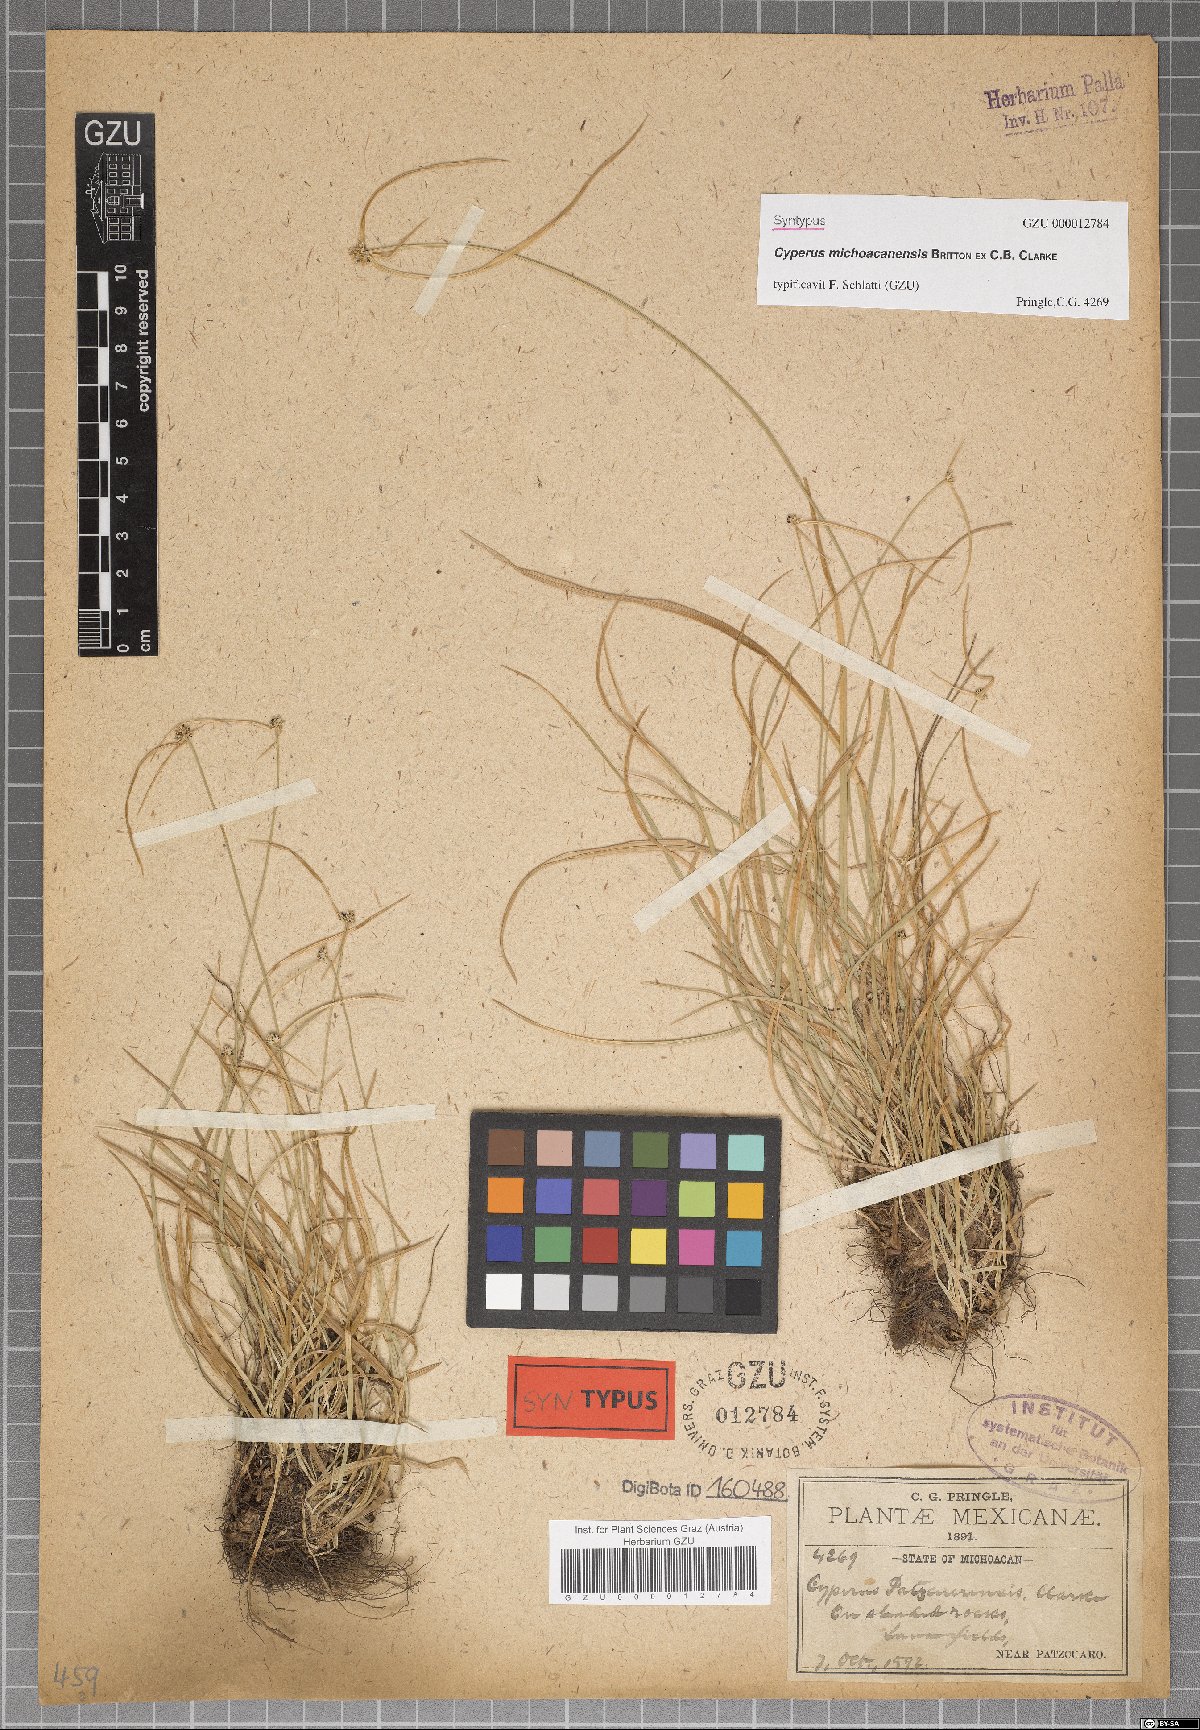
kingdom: Plantae
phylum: Tracheophyta
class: Liliopsida
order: Poales
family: Cyperaceae
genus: Cyperus
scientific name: Cyperus michoacanensis
